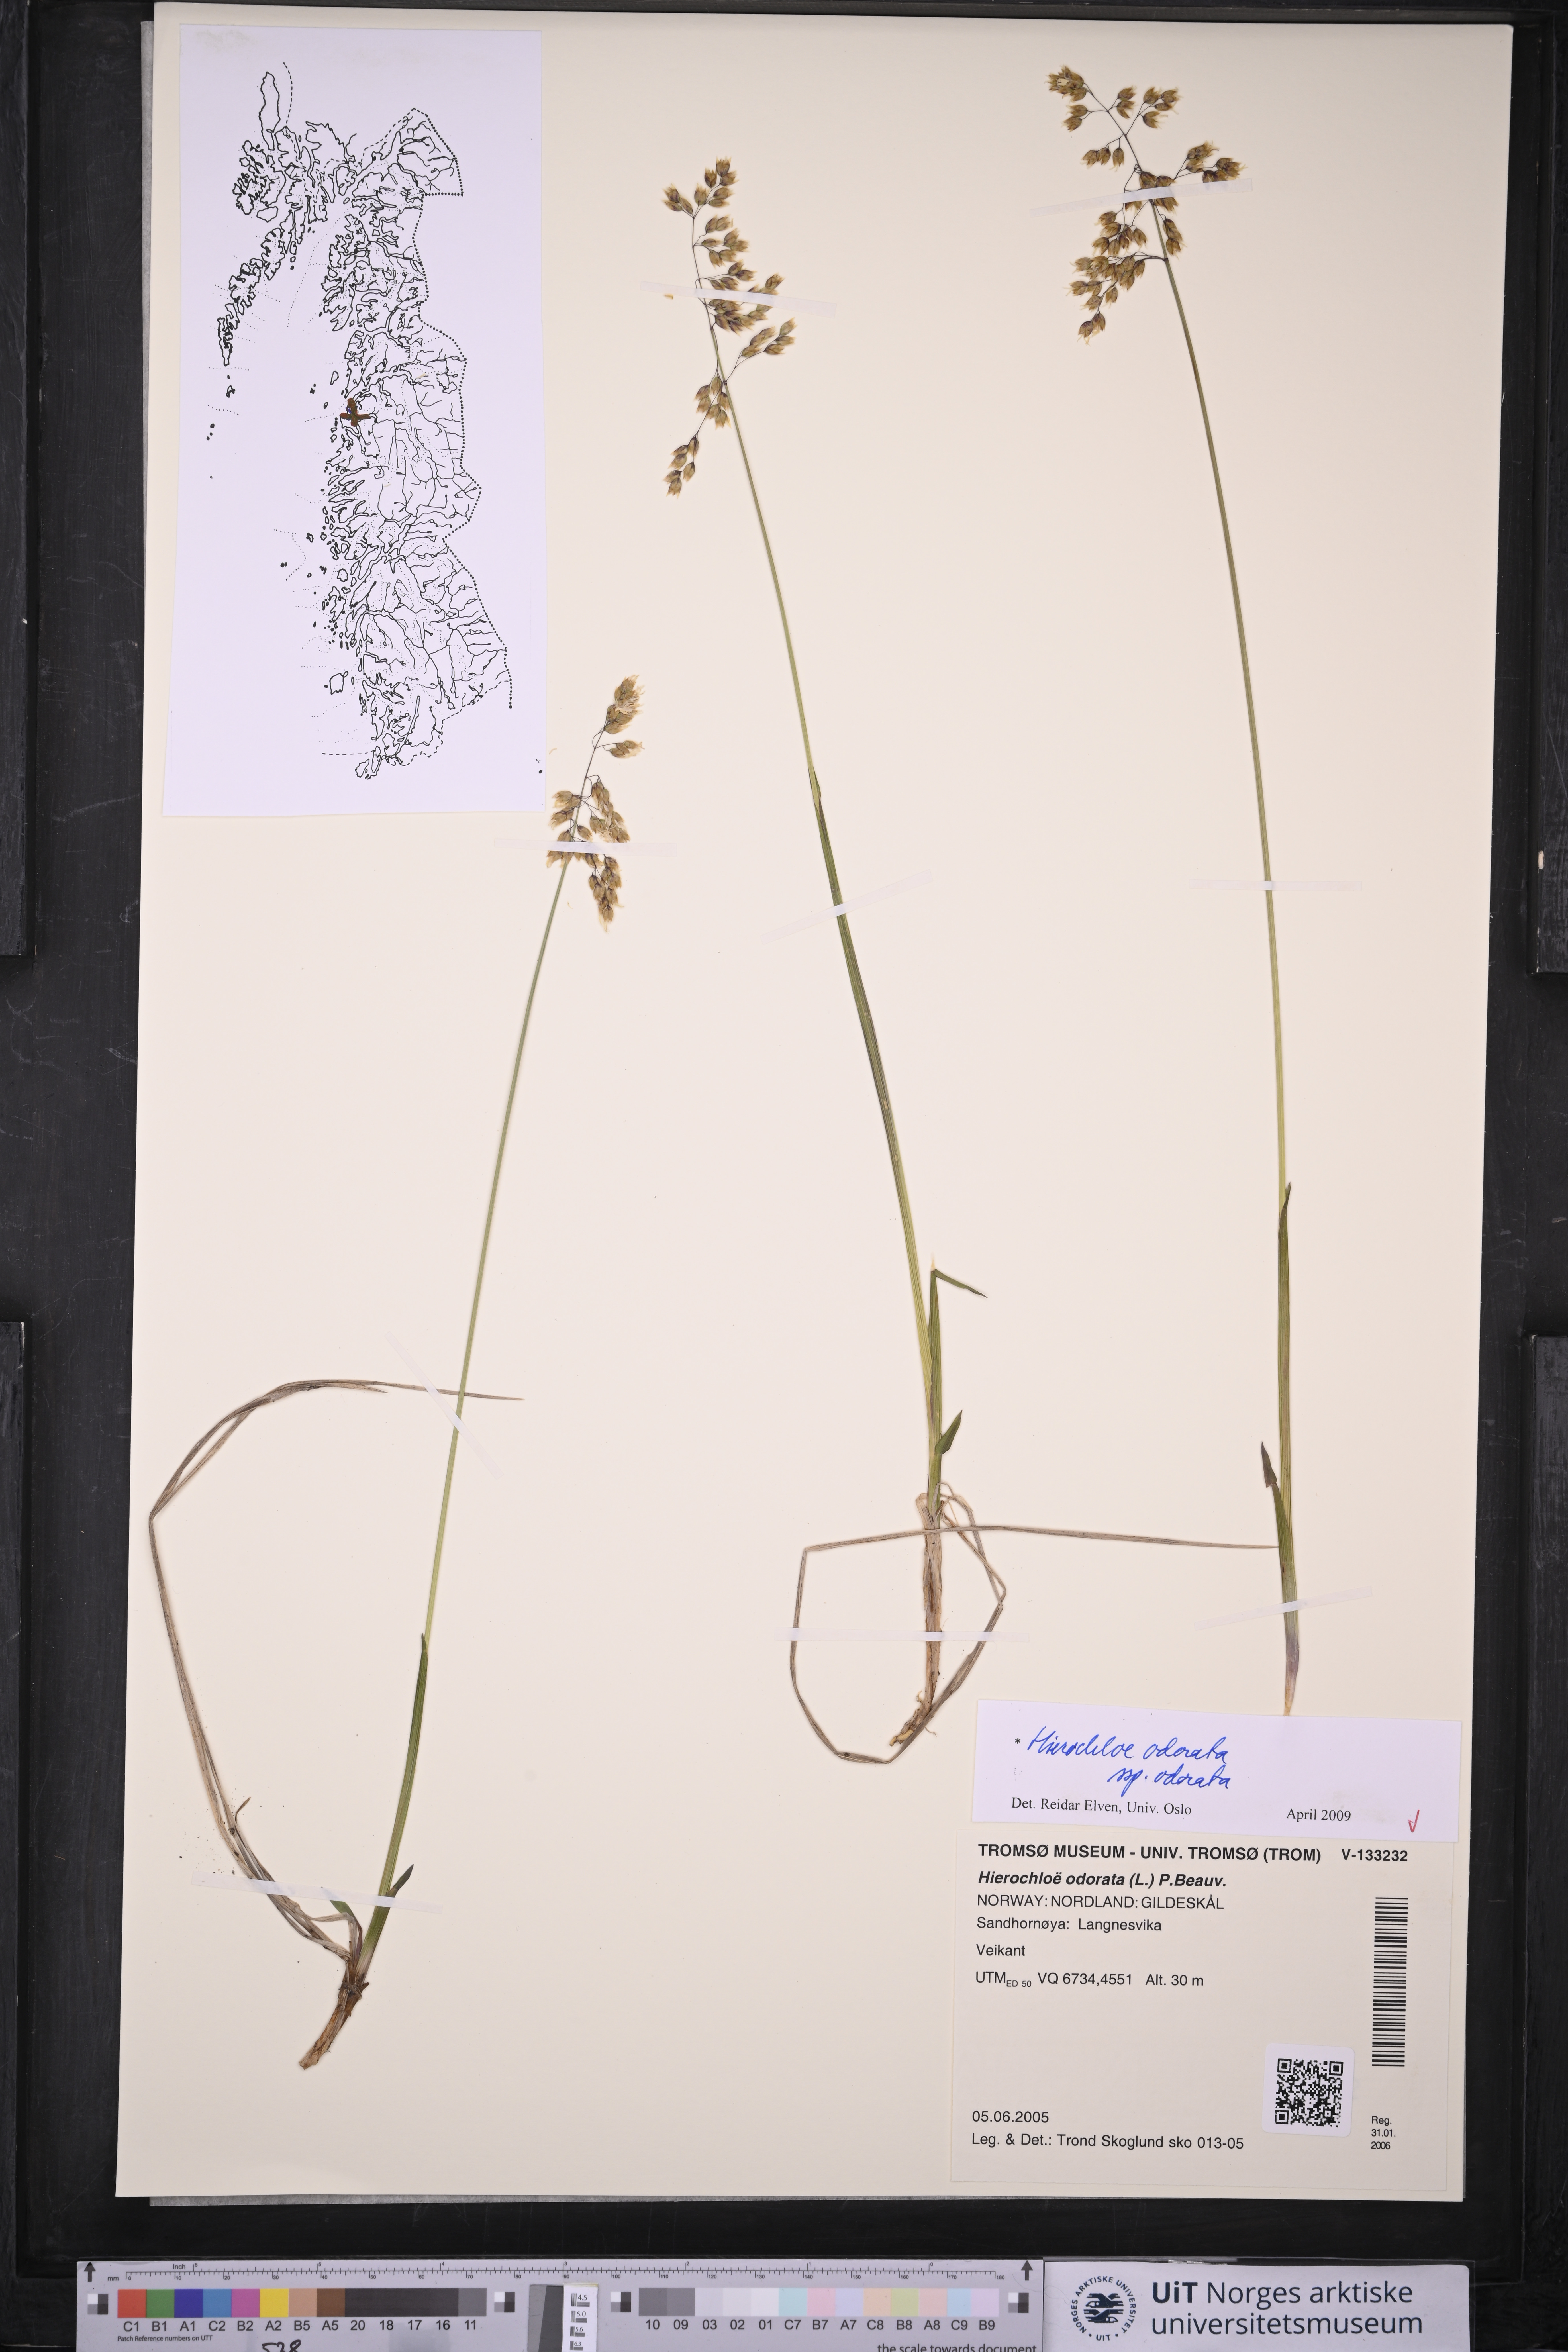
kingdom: Plantae
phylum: Tracheophyta
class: Liliopsida
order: Poales
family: Poaceae
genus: Anthoxanthum
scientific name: Anthoxanthum nitens
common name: Holy grass
